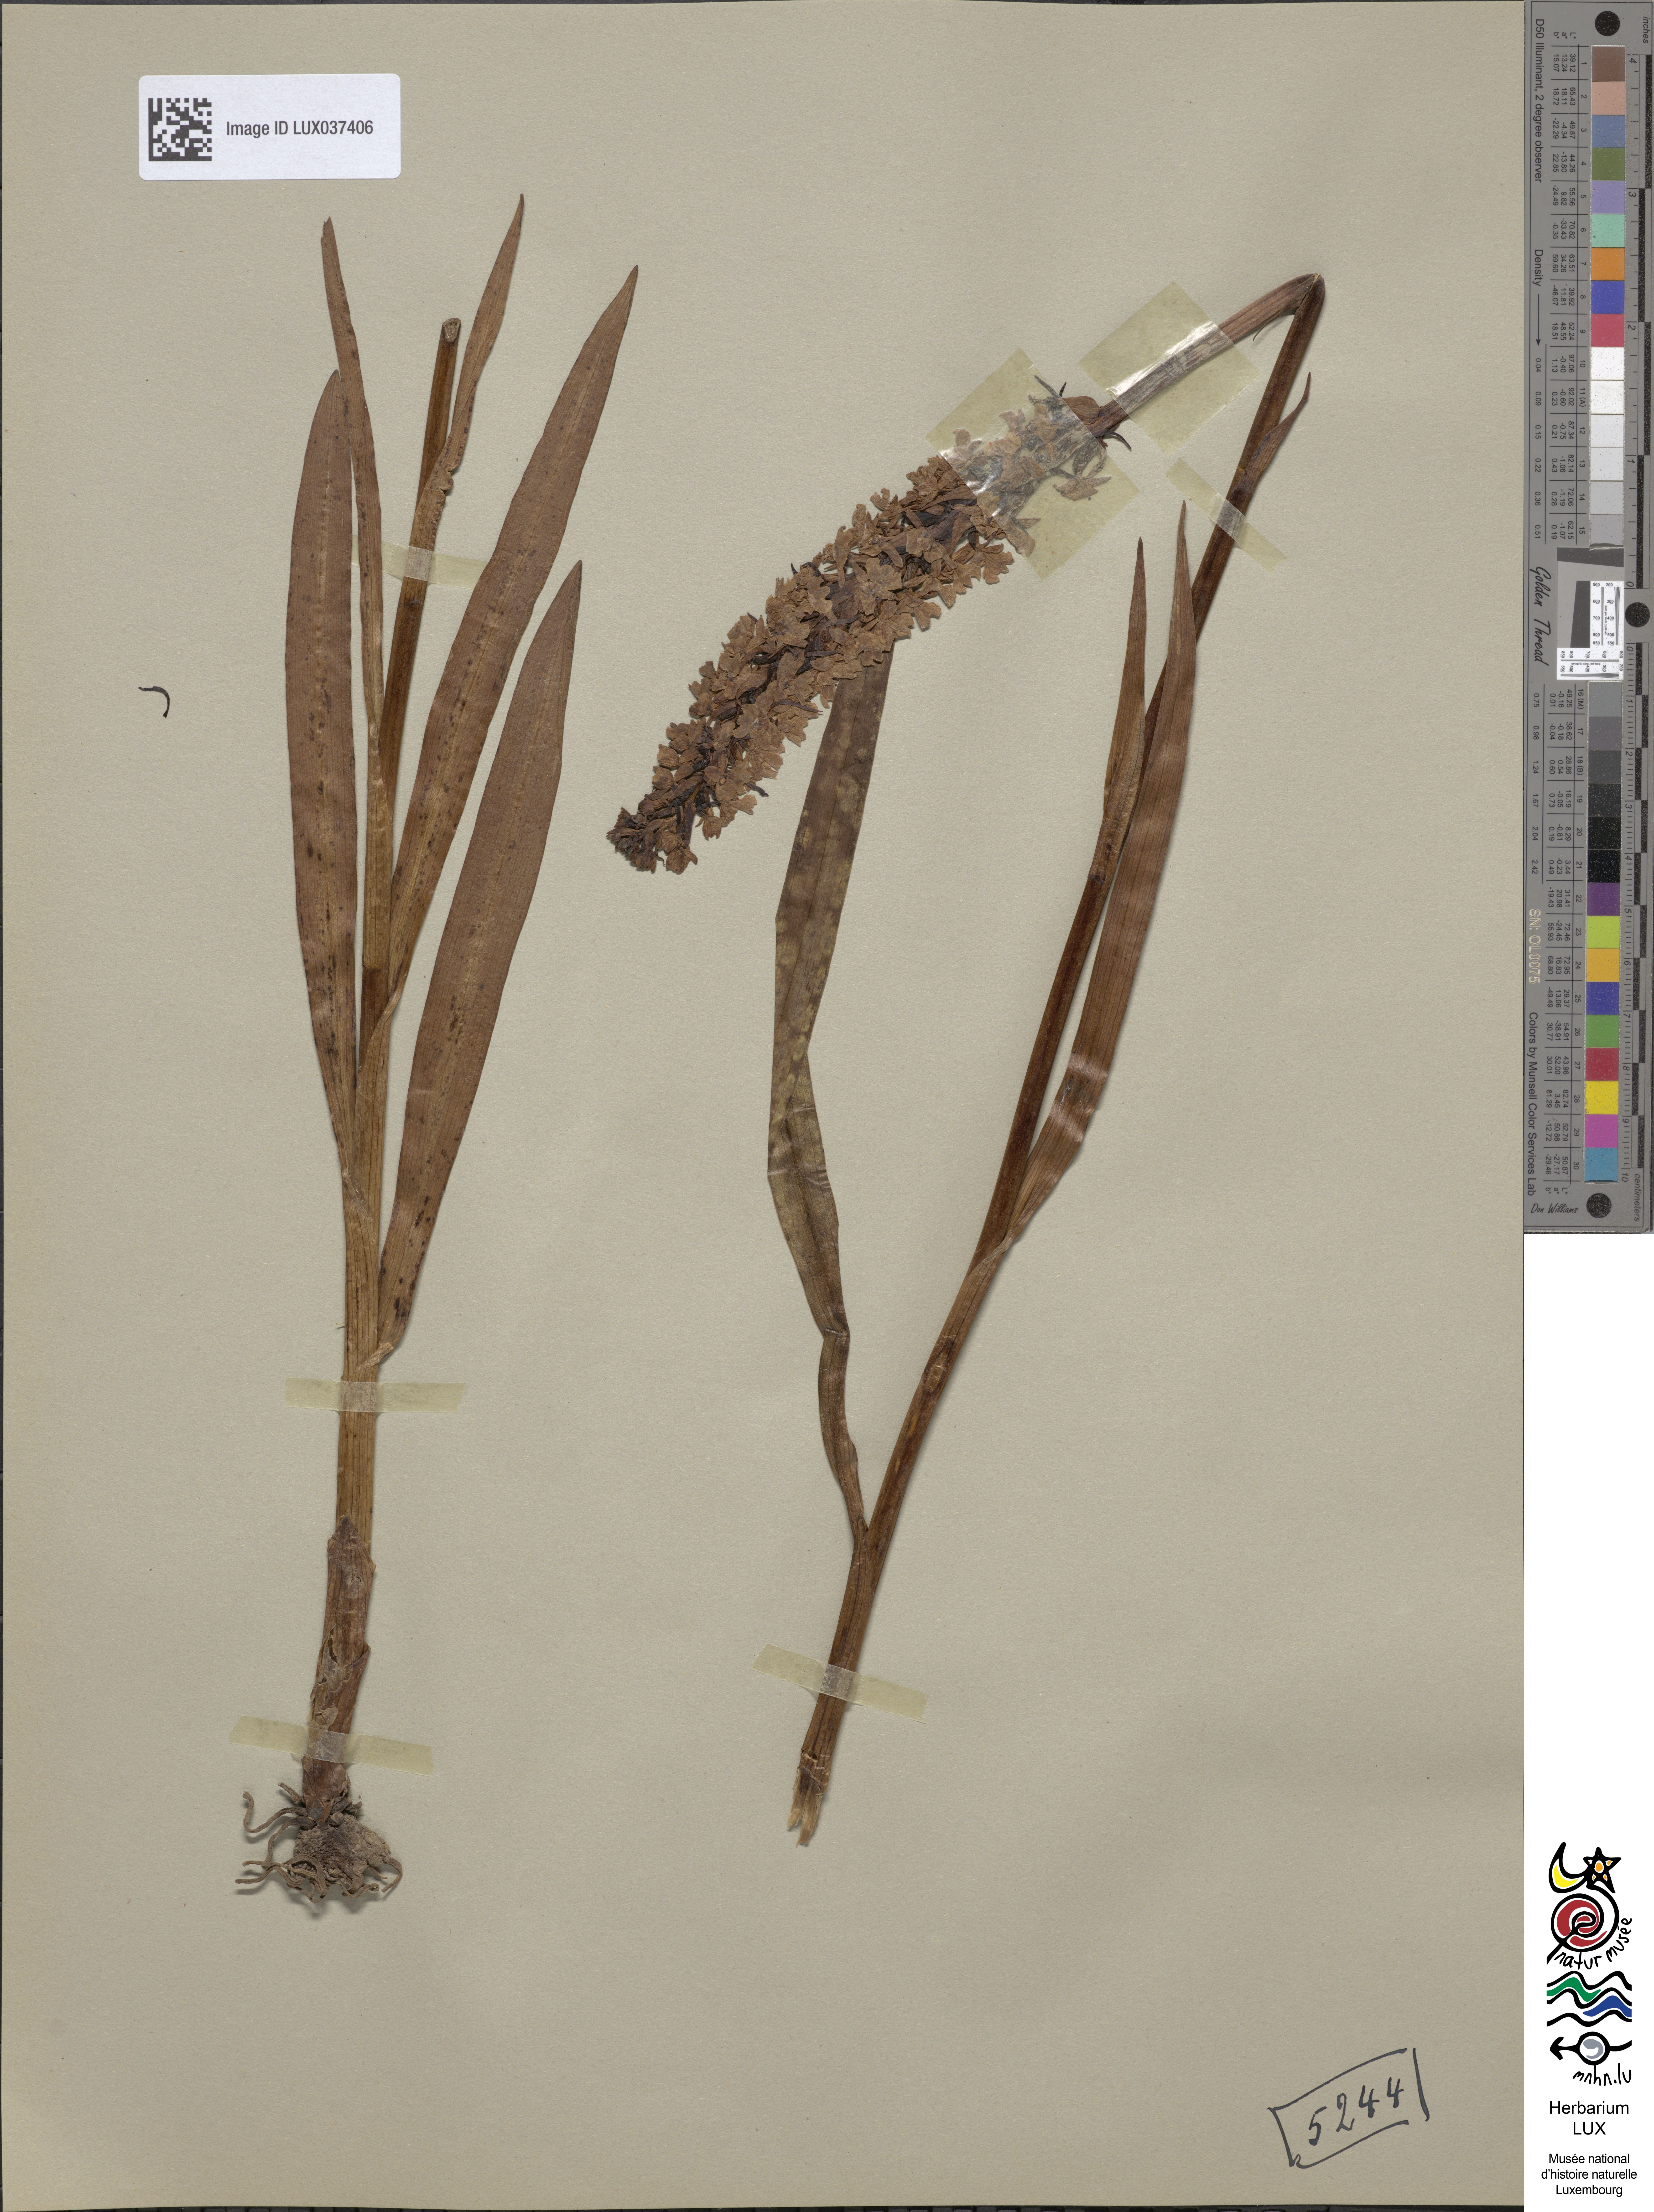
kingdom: Plantae
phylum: Tracheophyta
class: Liliopsida
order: Asparagales
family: Orchidaceae
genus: Gymnadenia
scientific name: Gymnadenia conopsea
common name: Fragrant orchid
